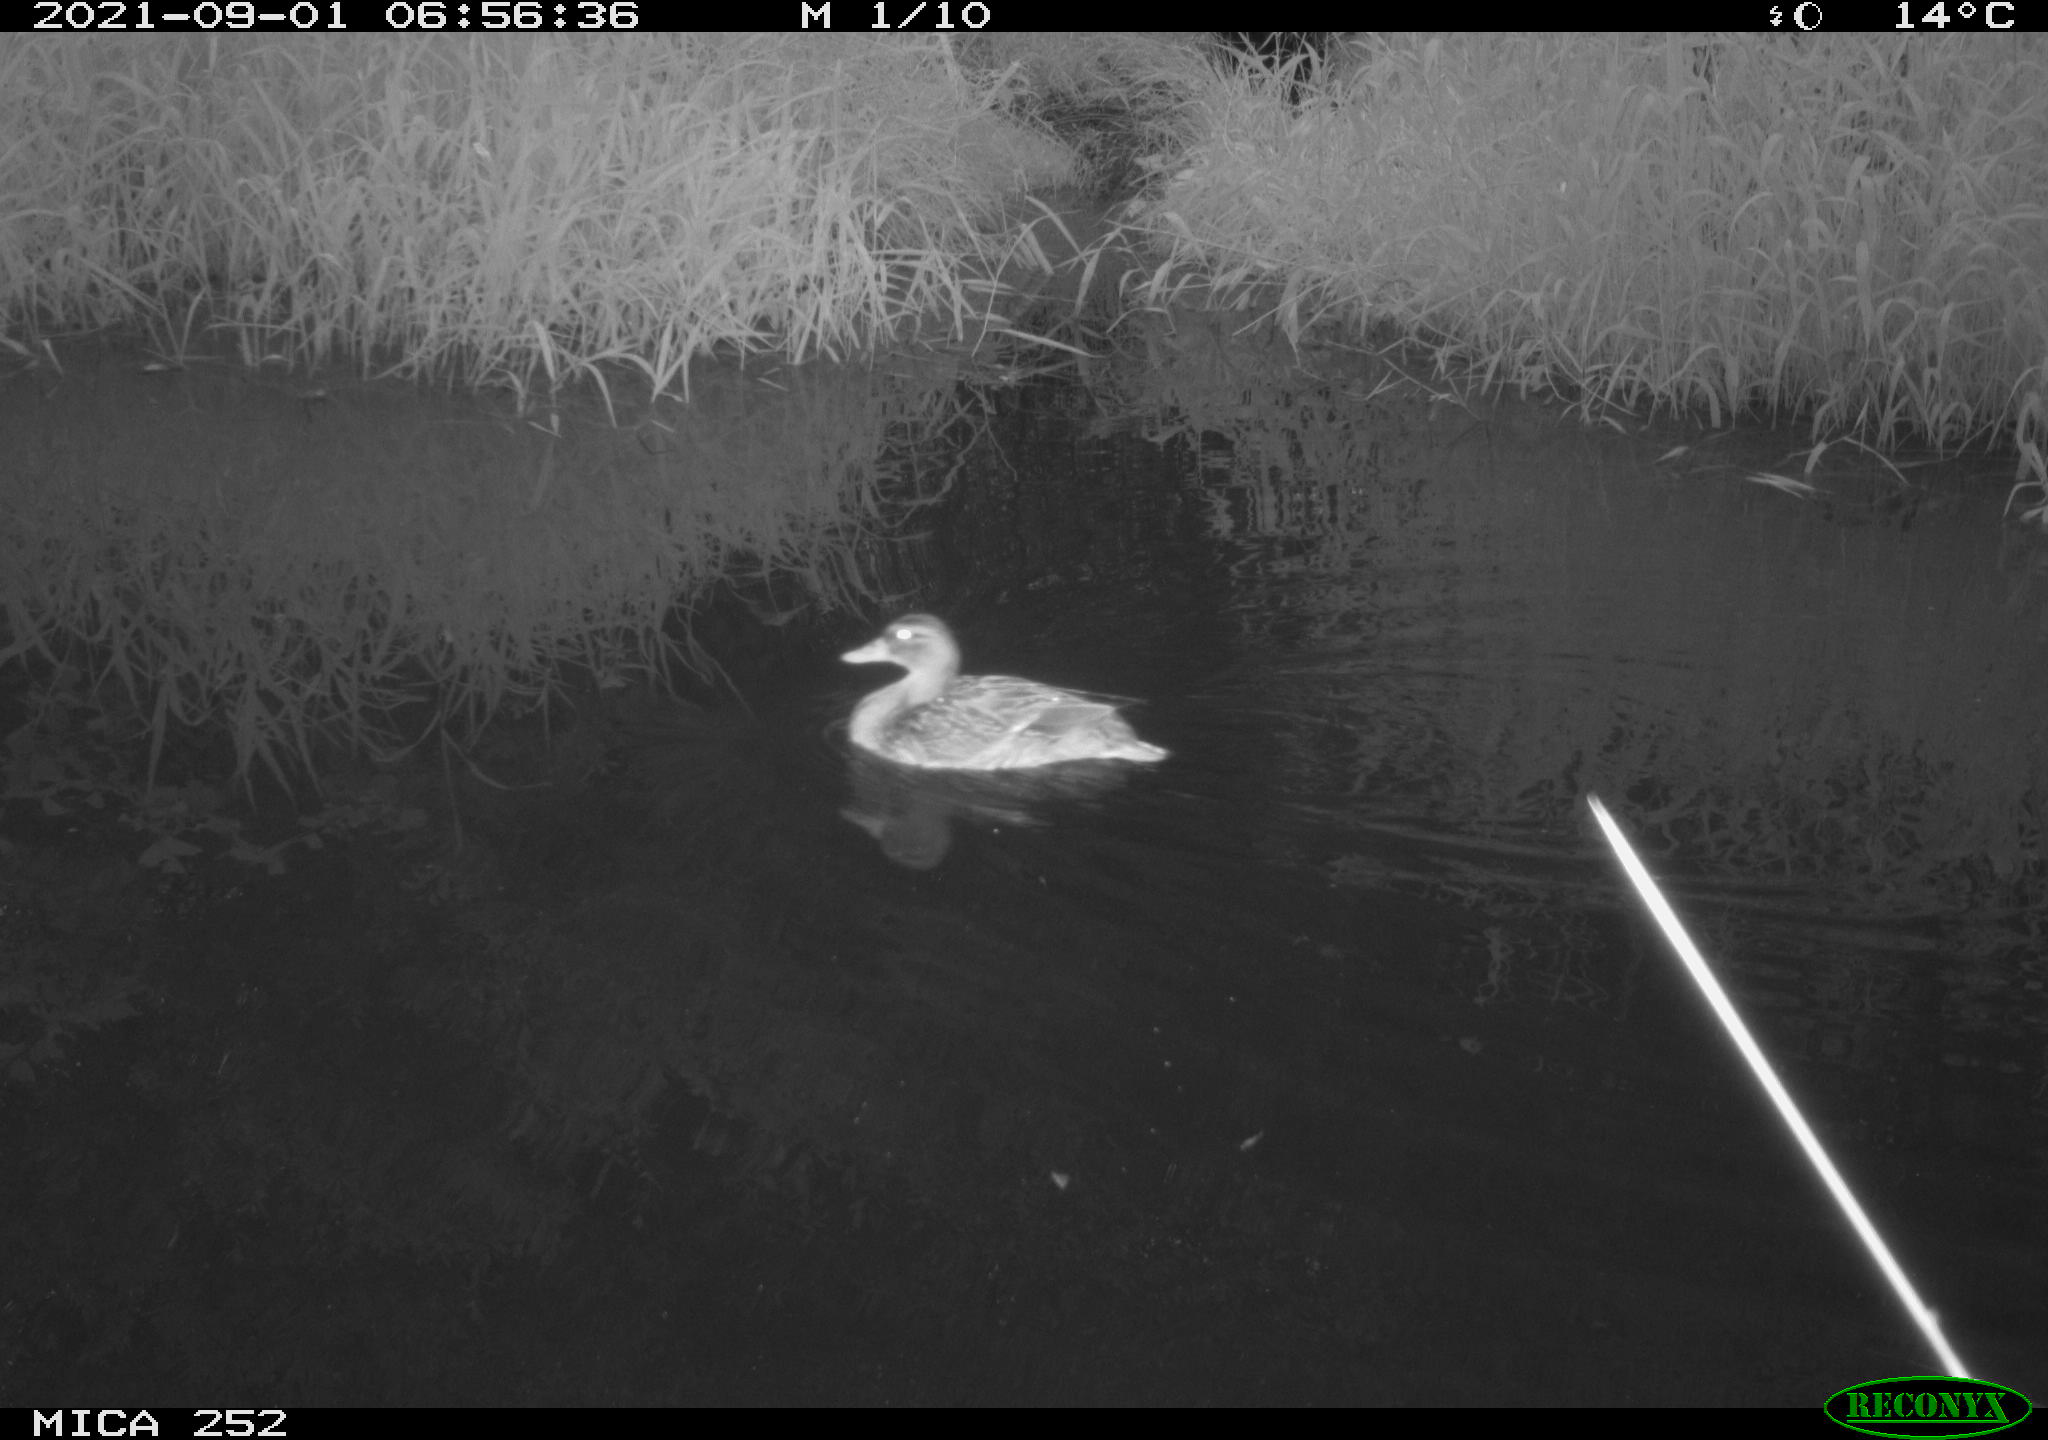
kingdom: Animalia
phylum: Chordata
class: Aves
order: Anseriformes
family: Anatidae
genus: Anas
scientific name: Anas platyrhynchos
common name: Mallard
